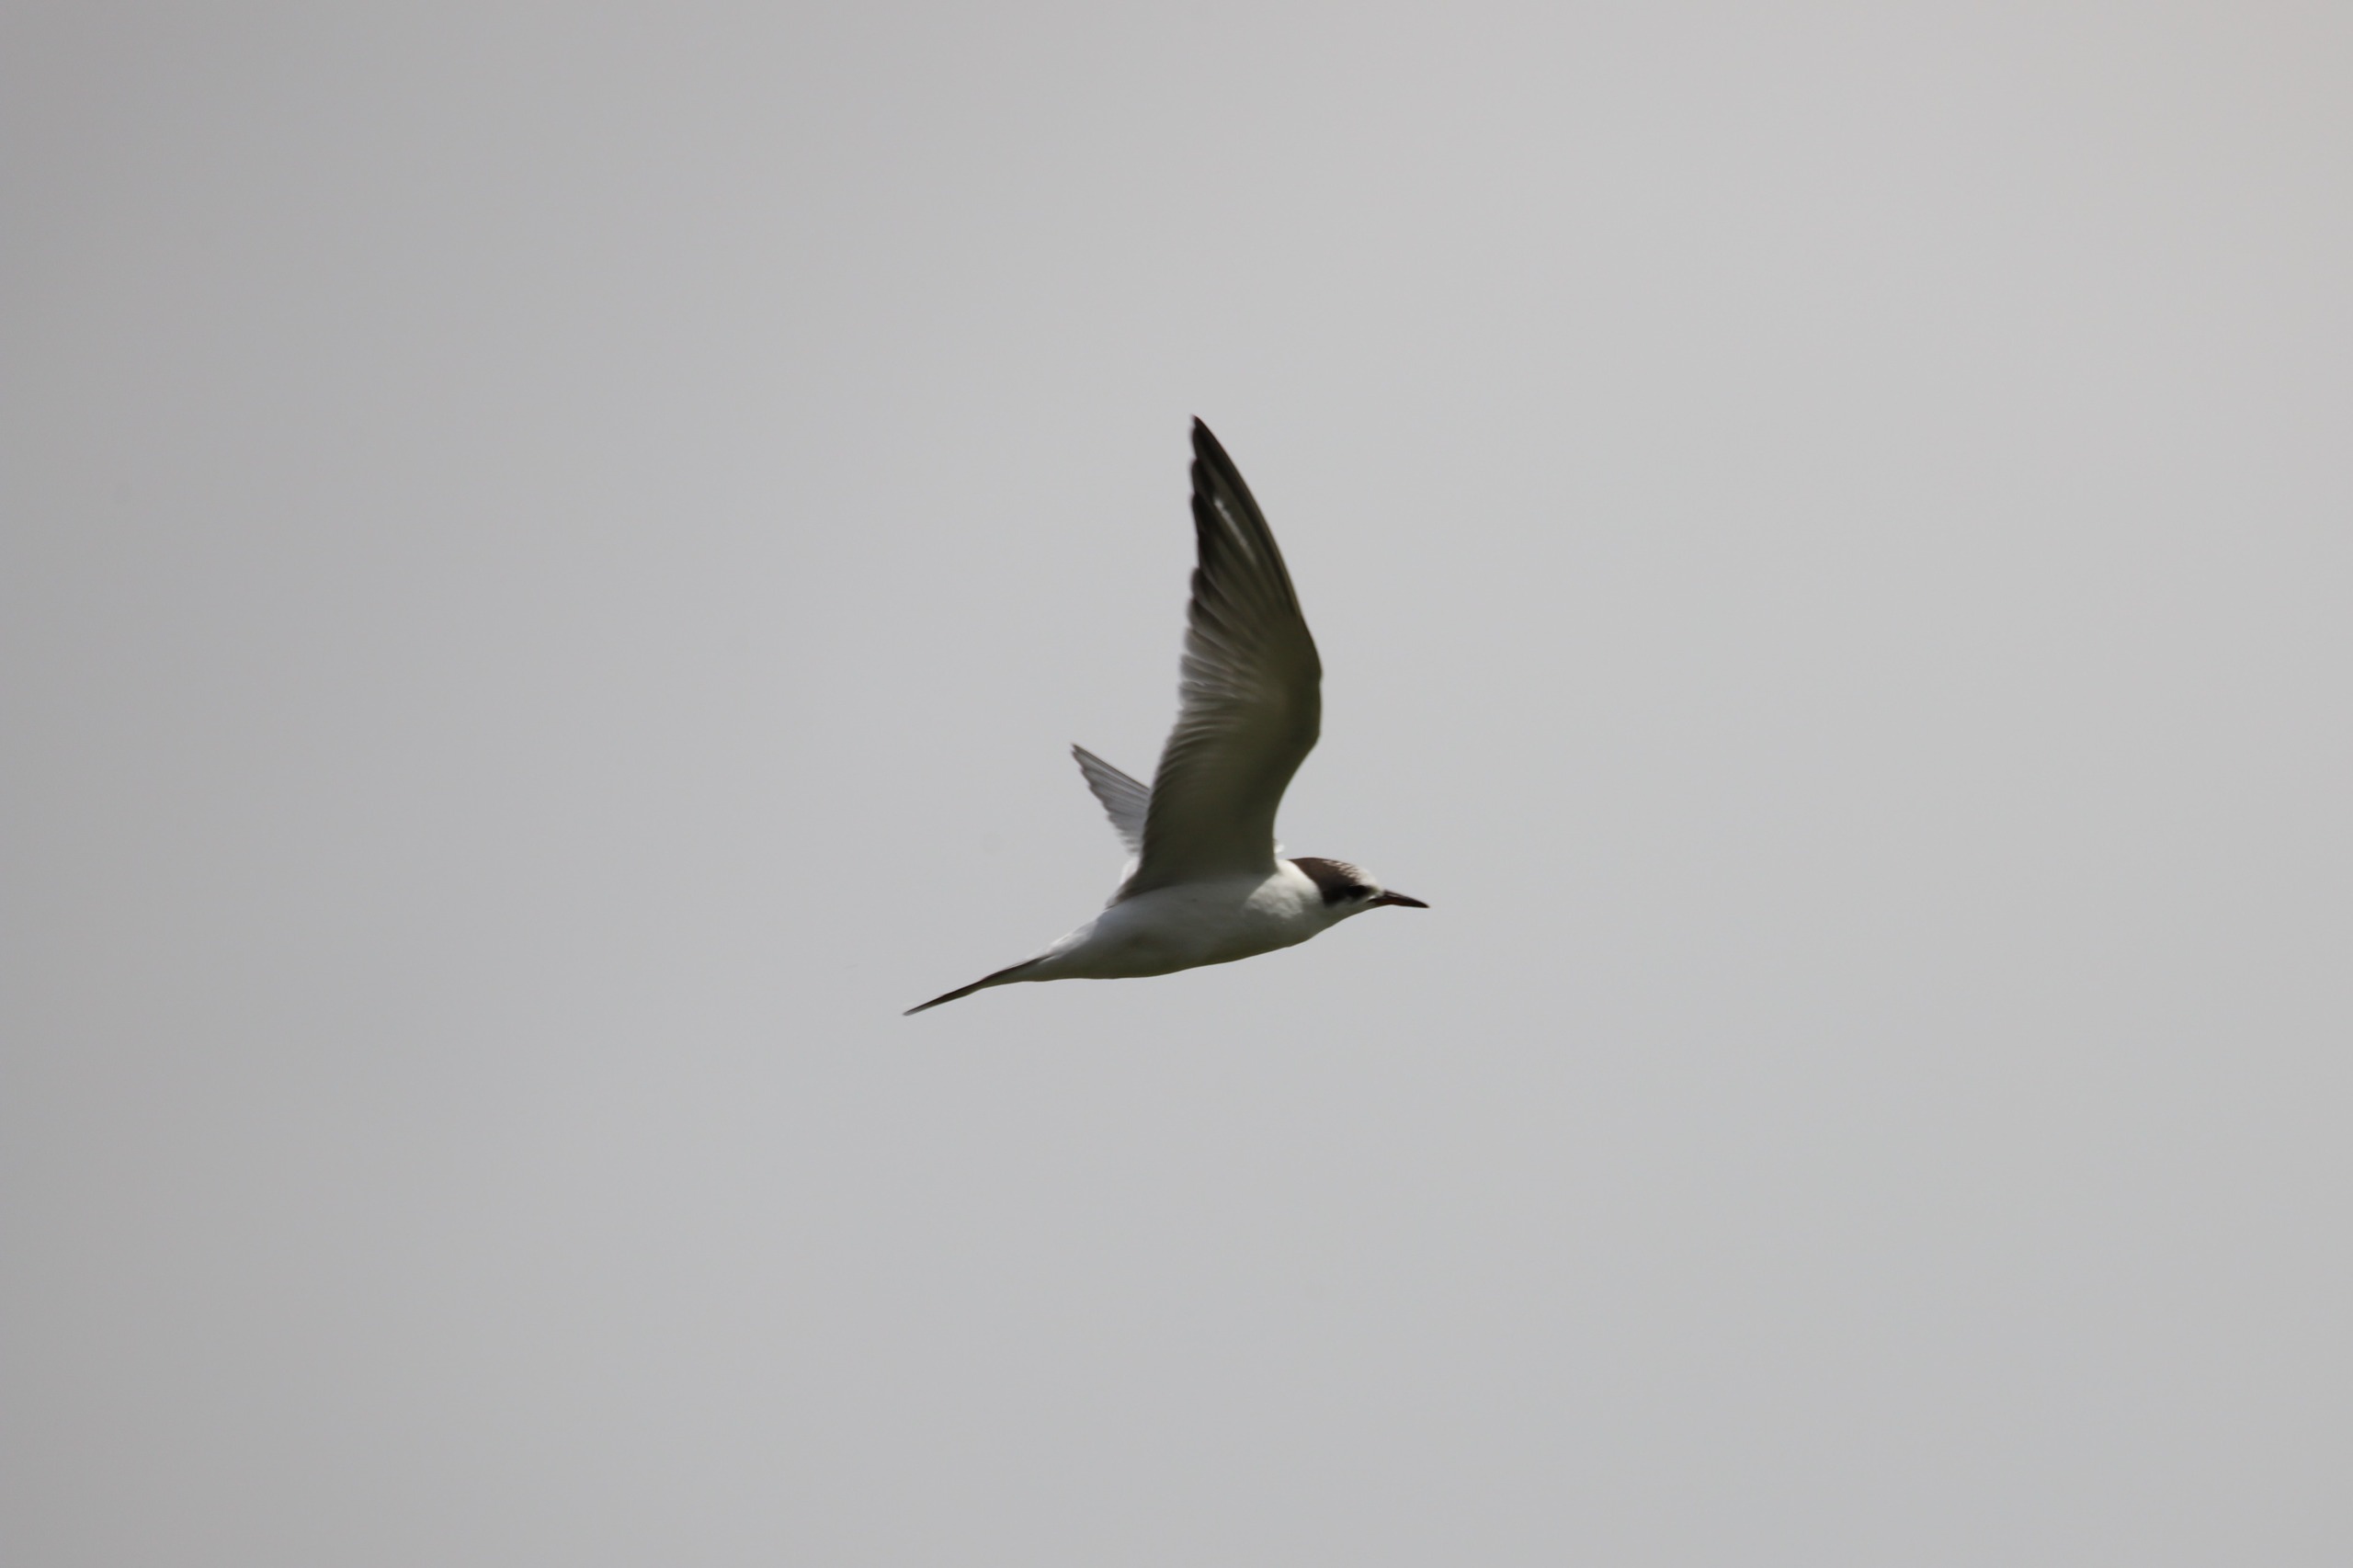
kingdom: Animalia
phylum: Chordata
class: Aves
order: Charadriiformes
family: Laridae
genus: Sterna
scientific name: Sterna hirundo
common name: Fjordterne
